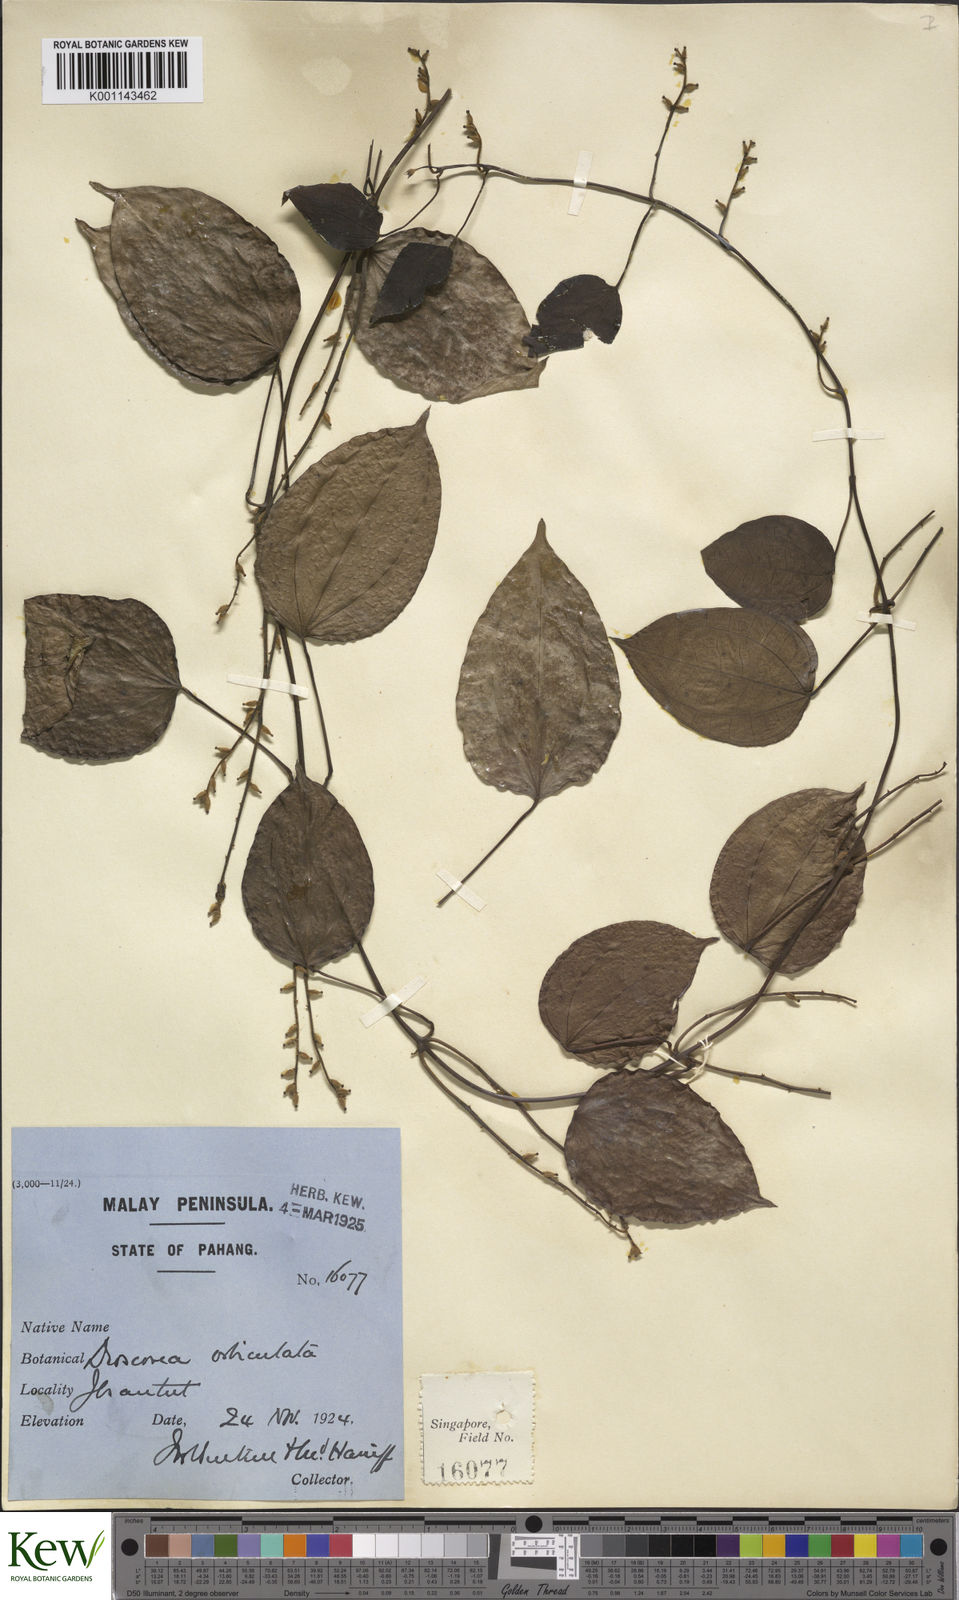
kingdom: Plantae
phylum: Tracheophyta
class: Liliopsida
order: Dioscoreales
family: Dioscoreaceae
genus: Dioscorea
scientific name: Dioscorea orbiculata
